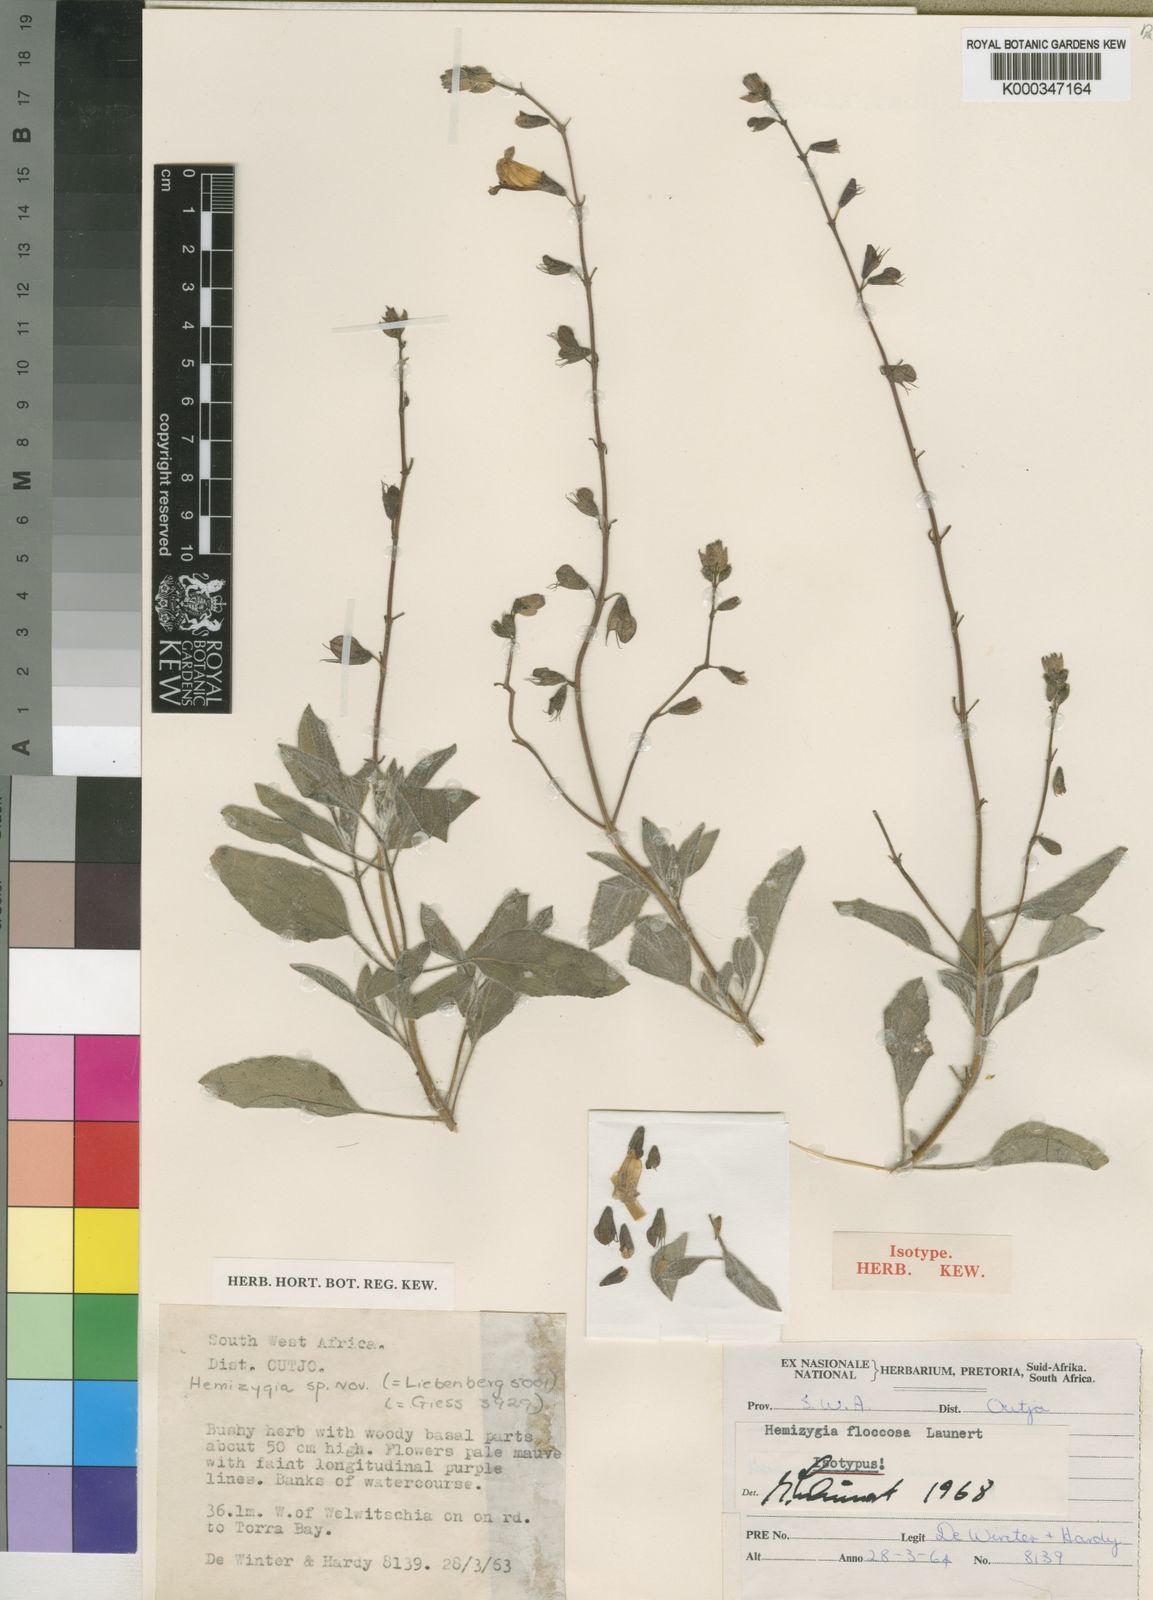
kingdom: Plantae
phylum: Tracheophyta
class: Magnoliopsida
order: Lamiales
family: Lamiaceae
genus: Syncolostemon
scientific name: Syncolostemon floccosus
